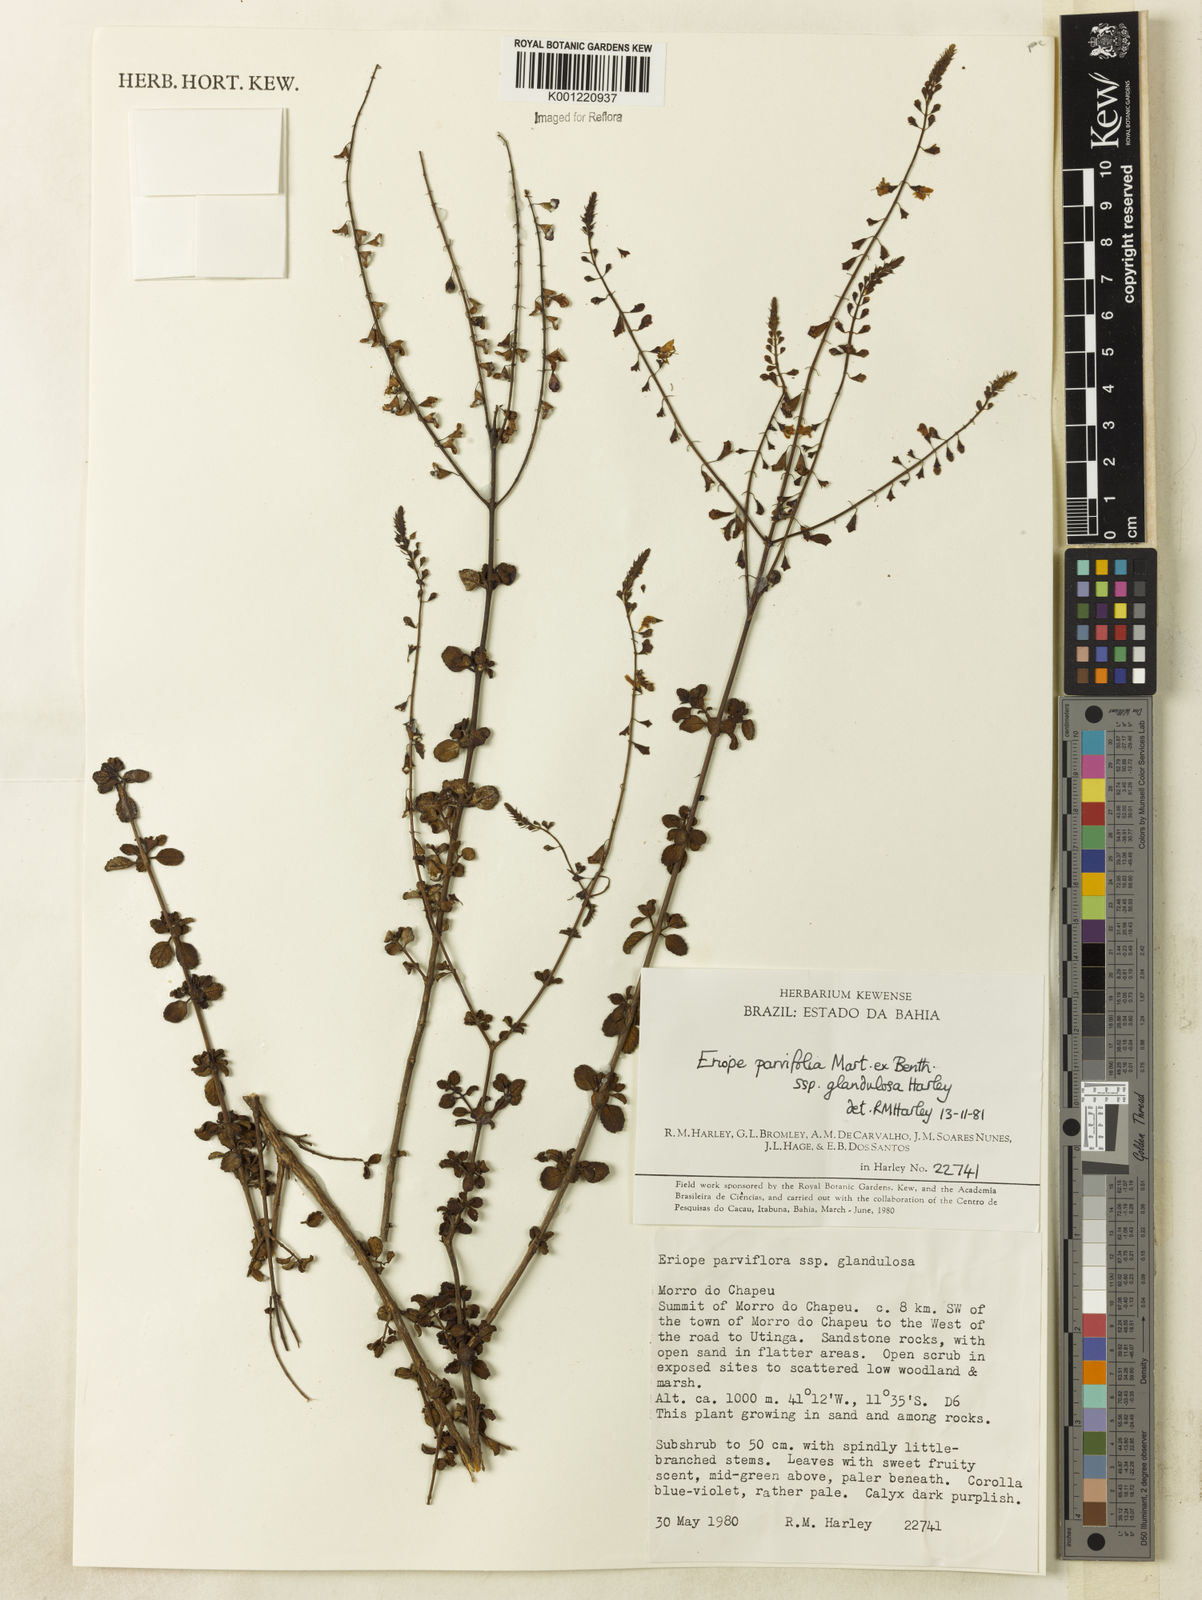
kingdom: Plantae
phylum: Tracheophyta
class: Magnoliopsida
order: Lamiales
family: Lamiaceae
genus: Eriope
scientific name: Eriope glandulosa
